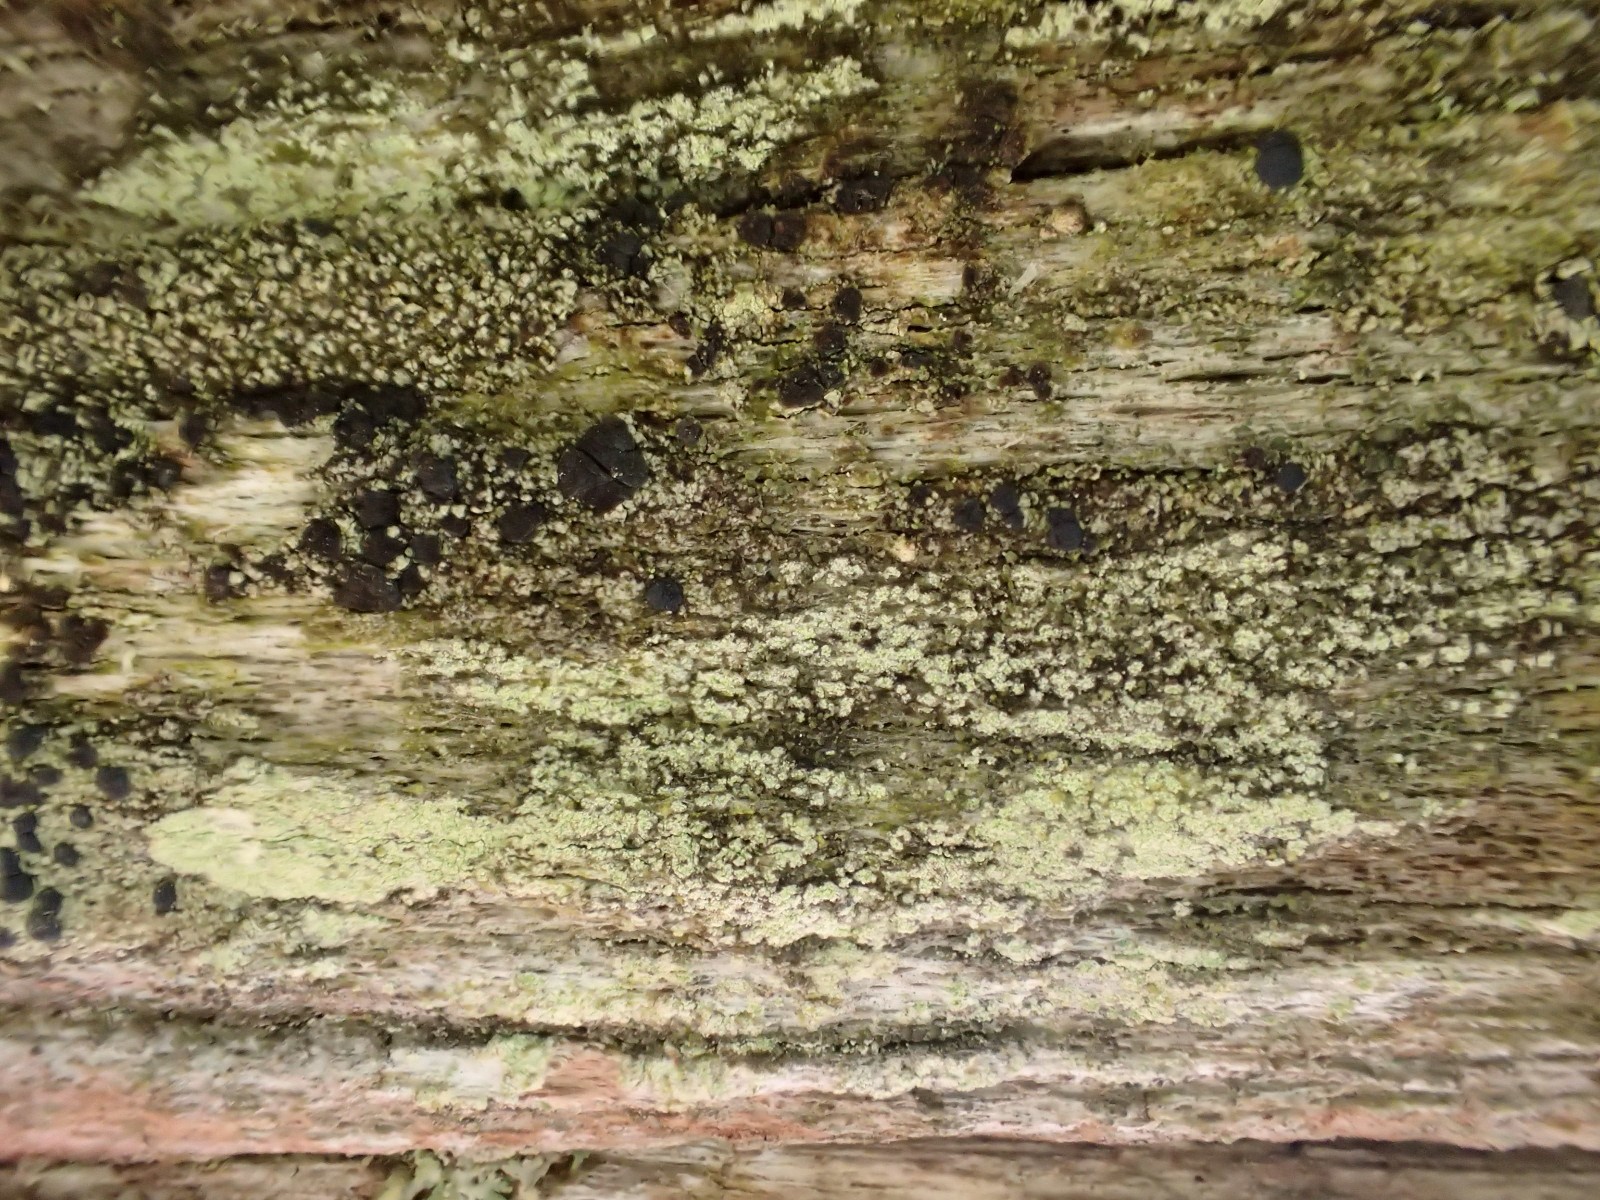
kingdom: Fungi
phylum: Ascomycota
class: Lecanoromycetes
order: Lecanorales
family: Lecanoraceae
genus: Lecanora
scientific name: Lecanora expallens
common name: bleggul kantskivelav
